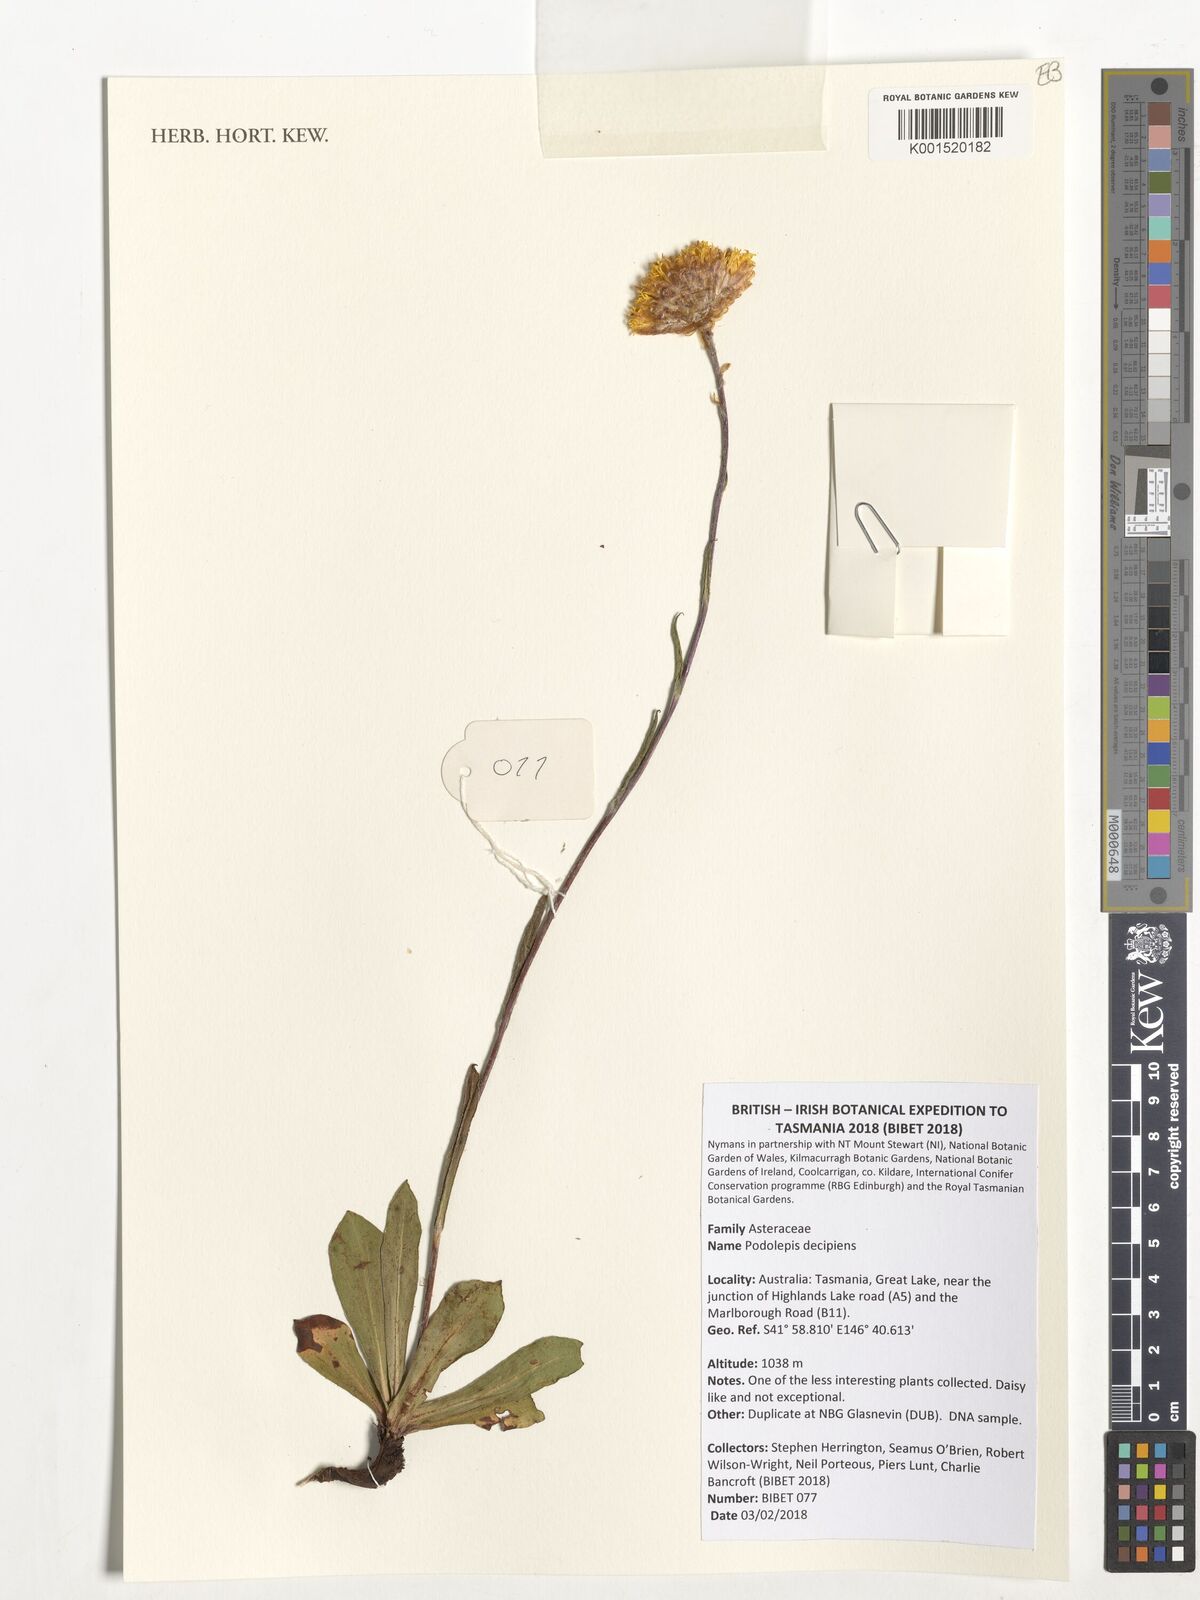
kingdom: Plantae
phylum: Tracheophyta
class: Magnoliopsida
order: Asterales
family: Asteraceae
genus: Podolepis
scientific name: Podolepis decipiens
